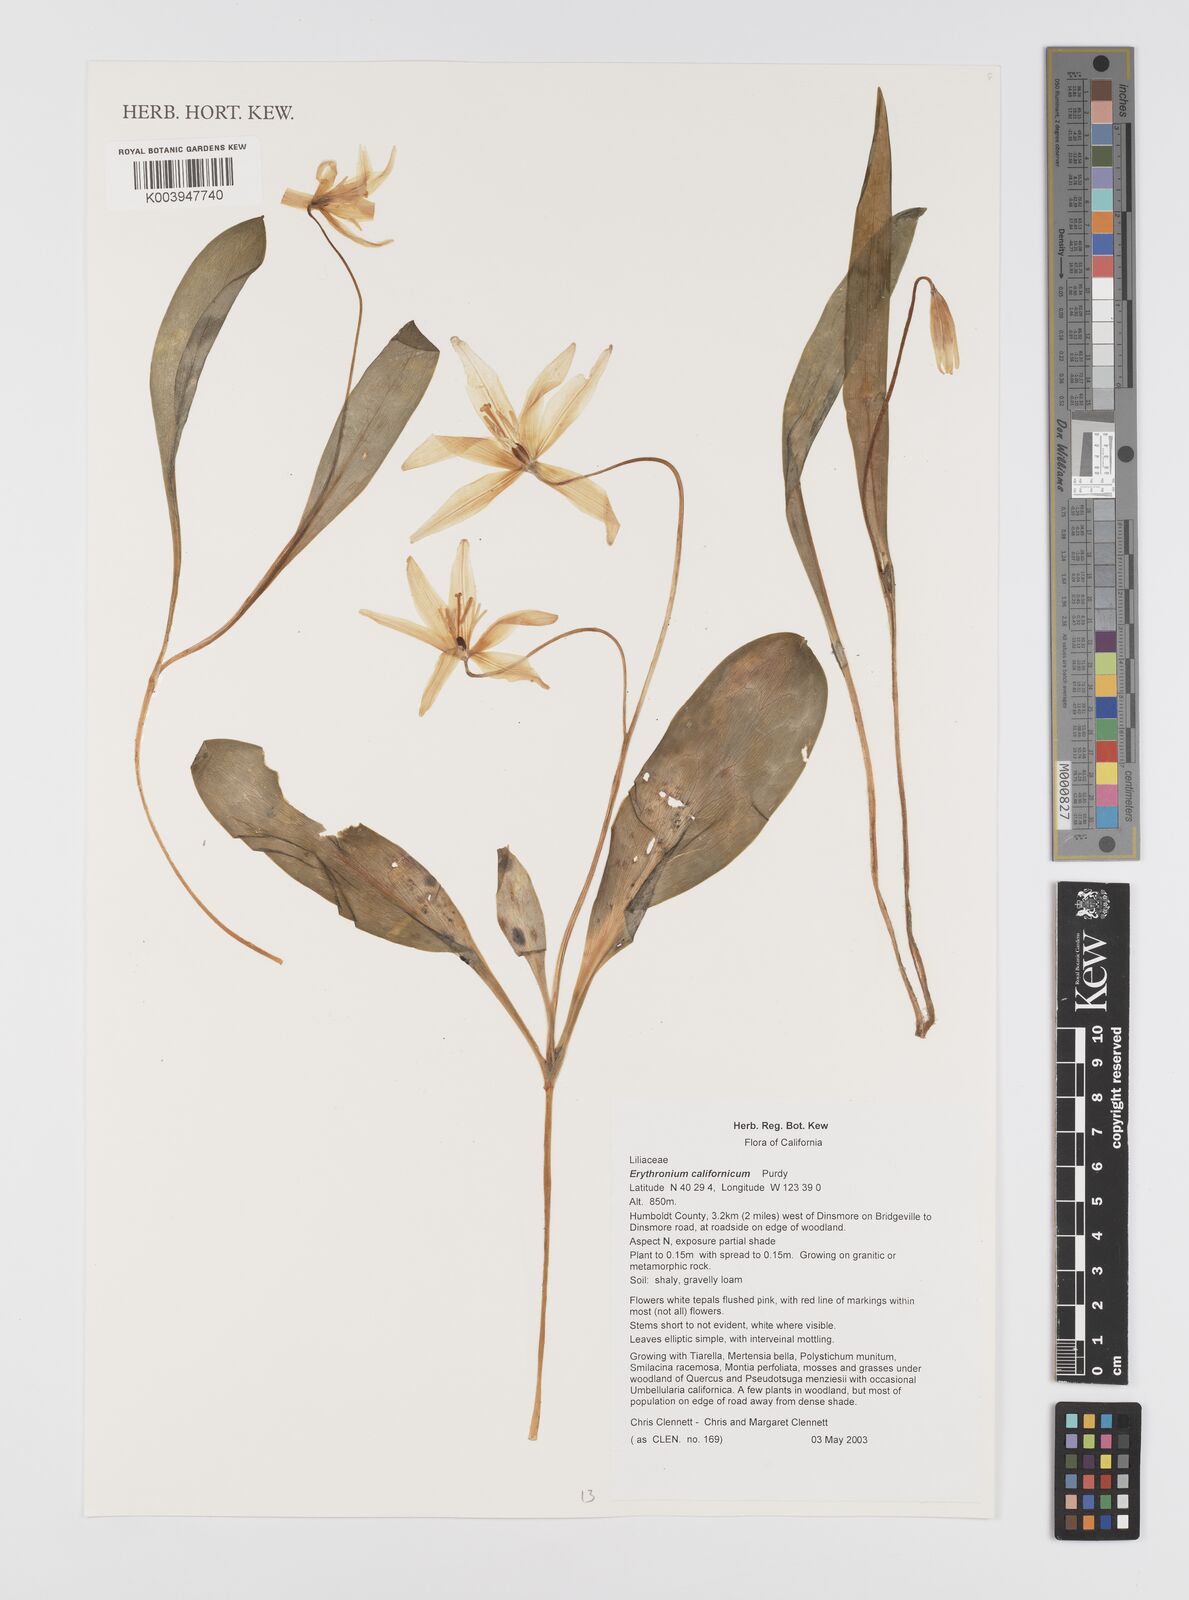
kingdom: Plantae
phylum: Tracheophyta
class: Liliopsida
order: Liliales
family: Liliaceae
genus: Erythronium
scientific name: Erythronium californicum
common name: Fawn-lily
